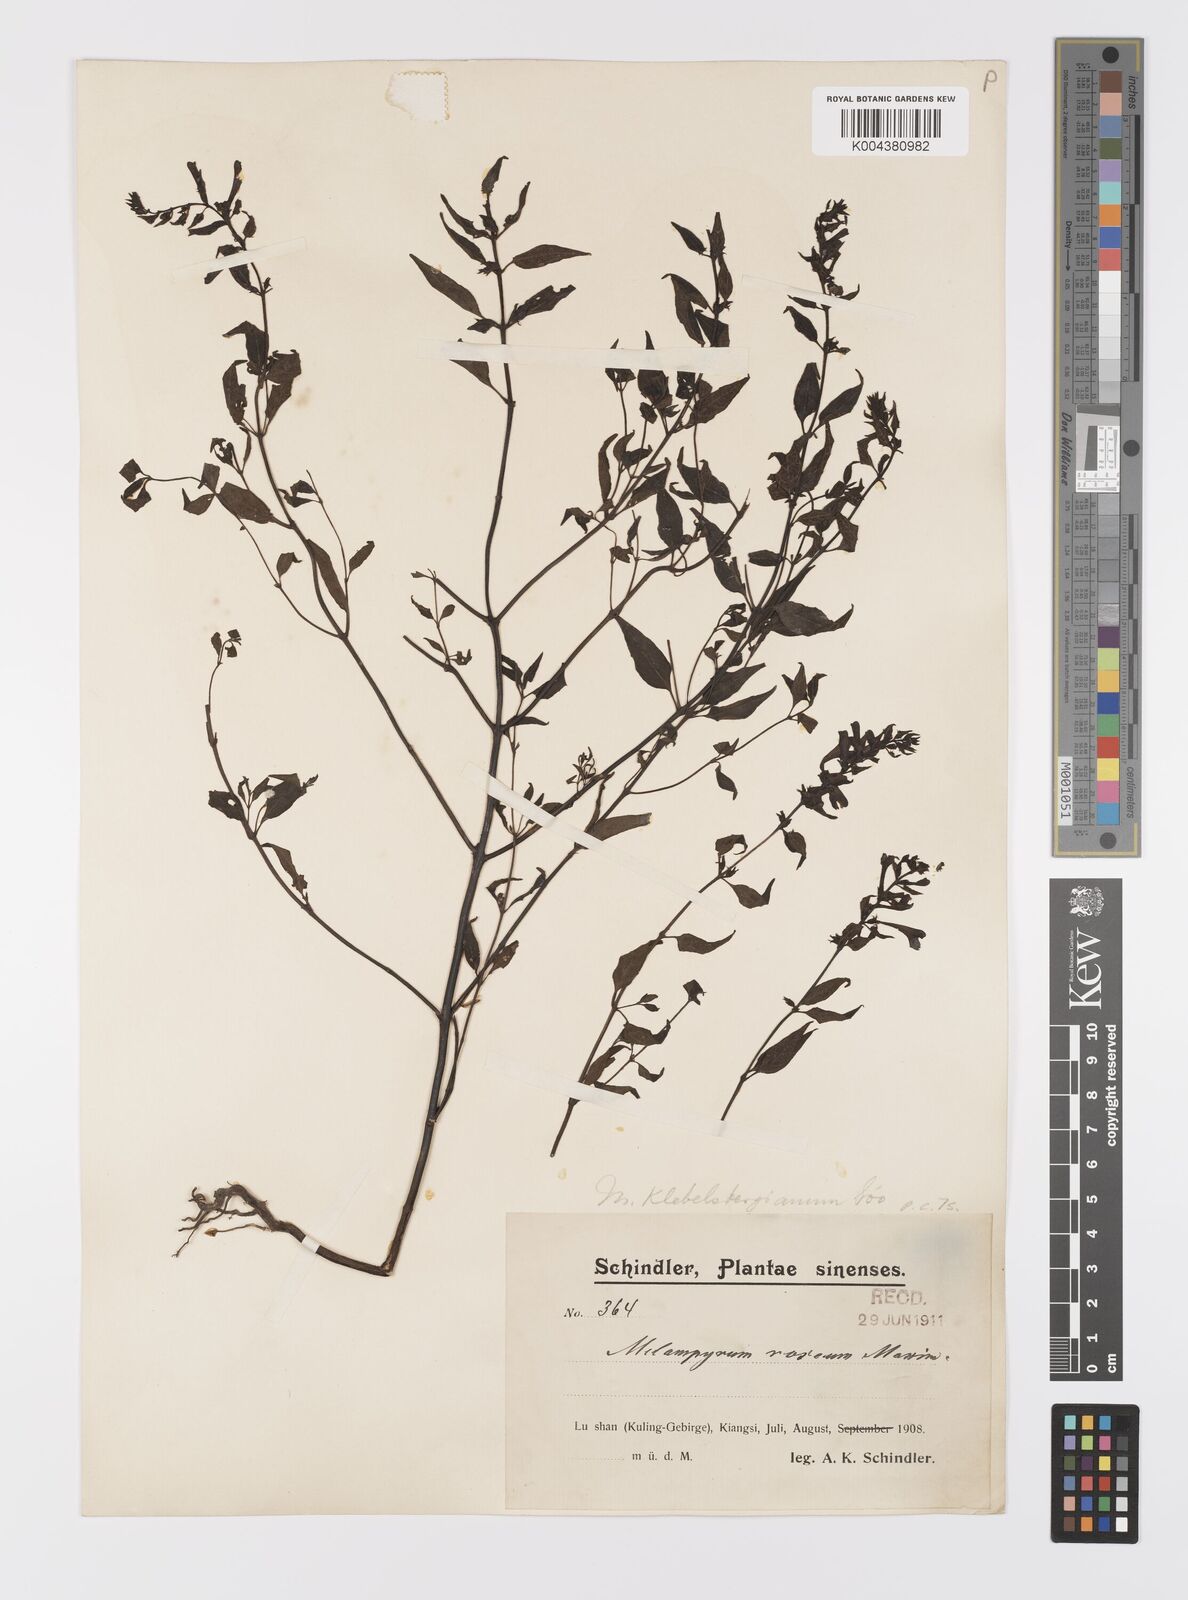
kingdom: Plantae
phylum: Tracheophyta
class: Magnoliopsida
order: Lamiales
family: Orobanchaceae
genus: Melampyrum
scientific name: Melampyrum chinense
